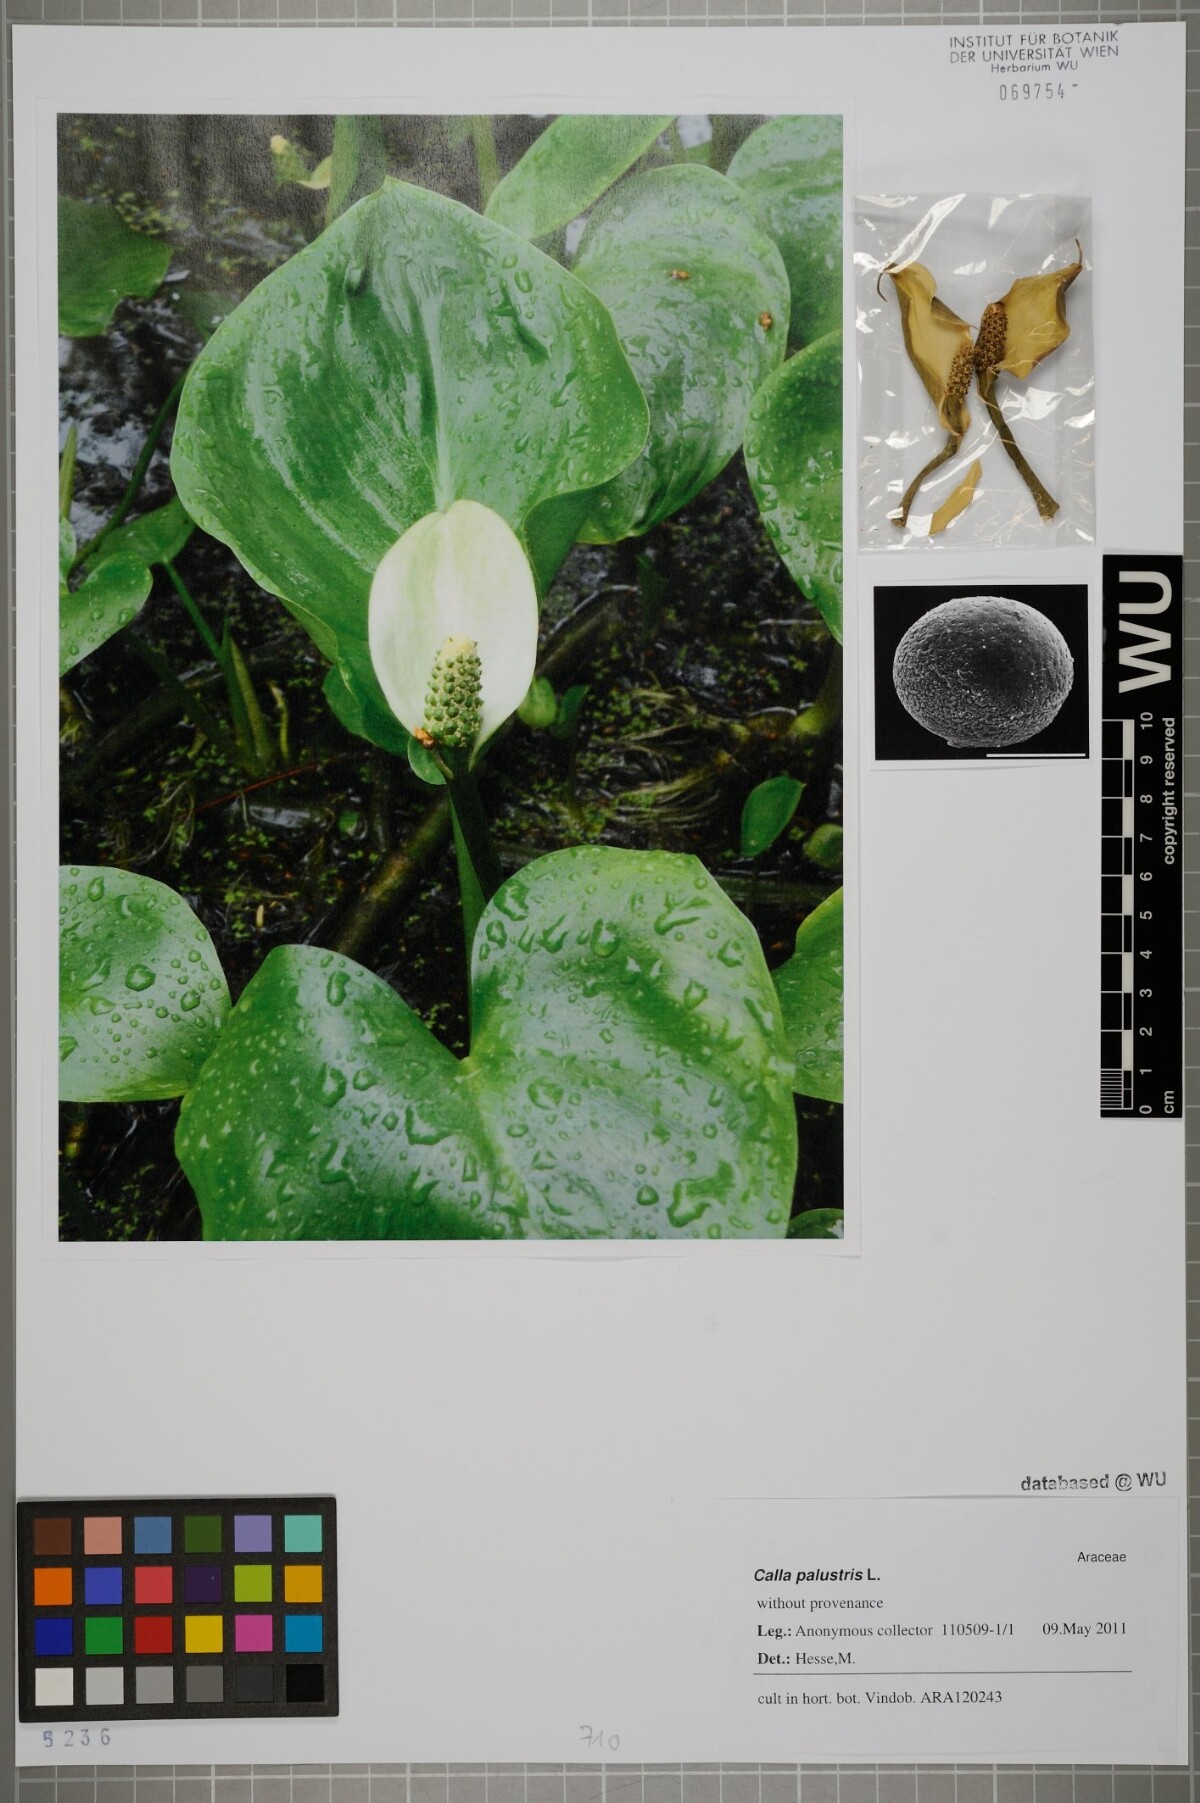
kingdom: Plantae
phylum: Tracheophyta
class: Liliopsida
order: Alismatales
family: Araceae
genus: Calla
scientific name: Calla palustris
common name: Bog arum
